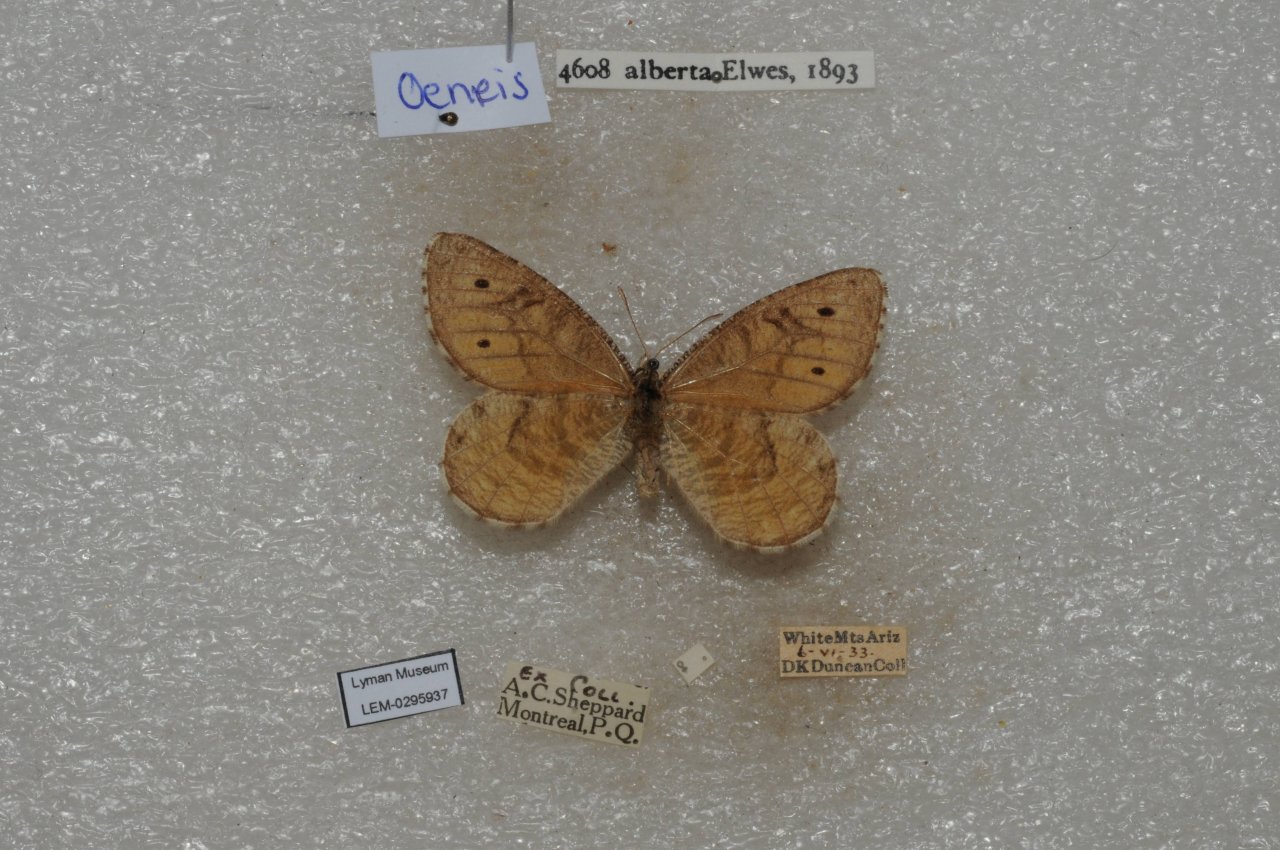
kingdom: Animalia
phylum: Arthropoda
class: Insecta
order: Lepidoptera
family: Nymphalidae
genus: Oeneis
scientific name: Oeneis alberta
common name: Alberta Arctic
